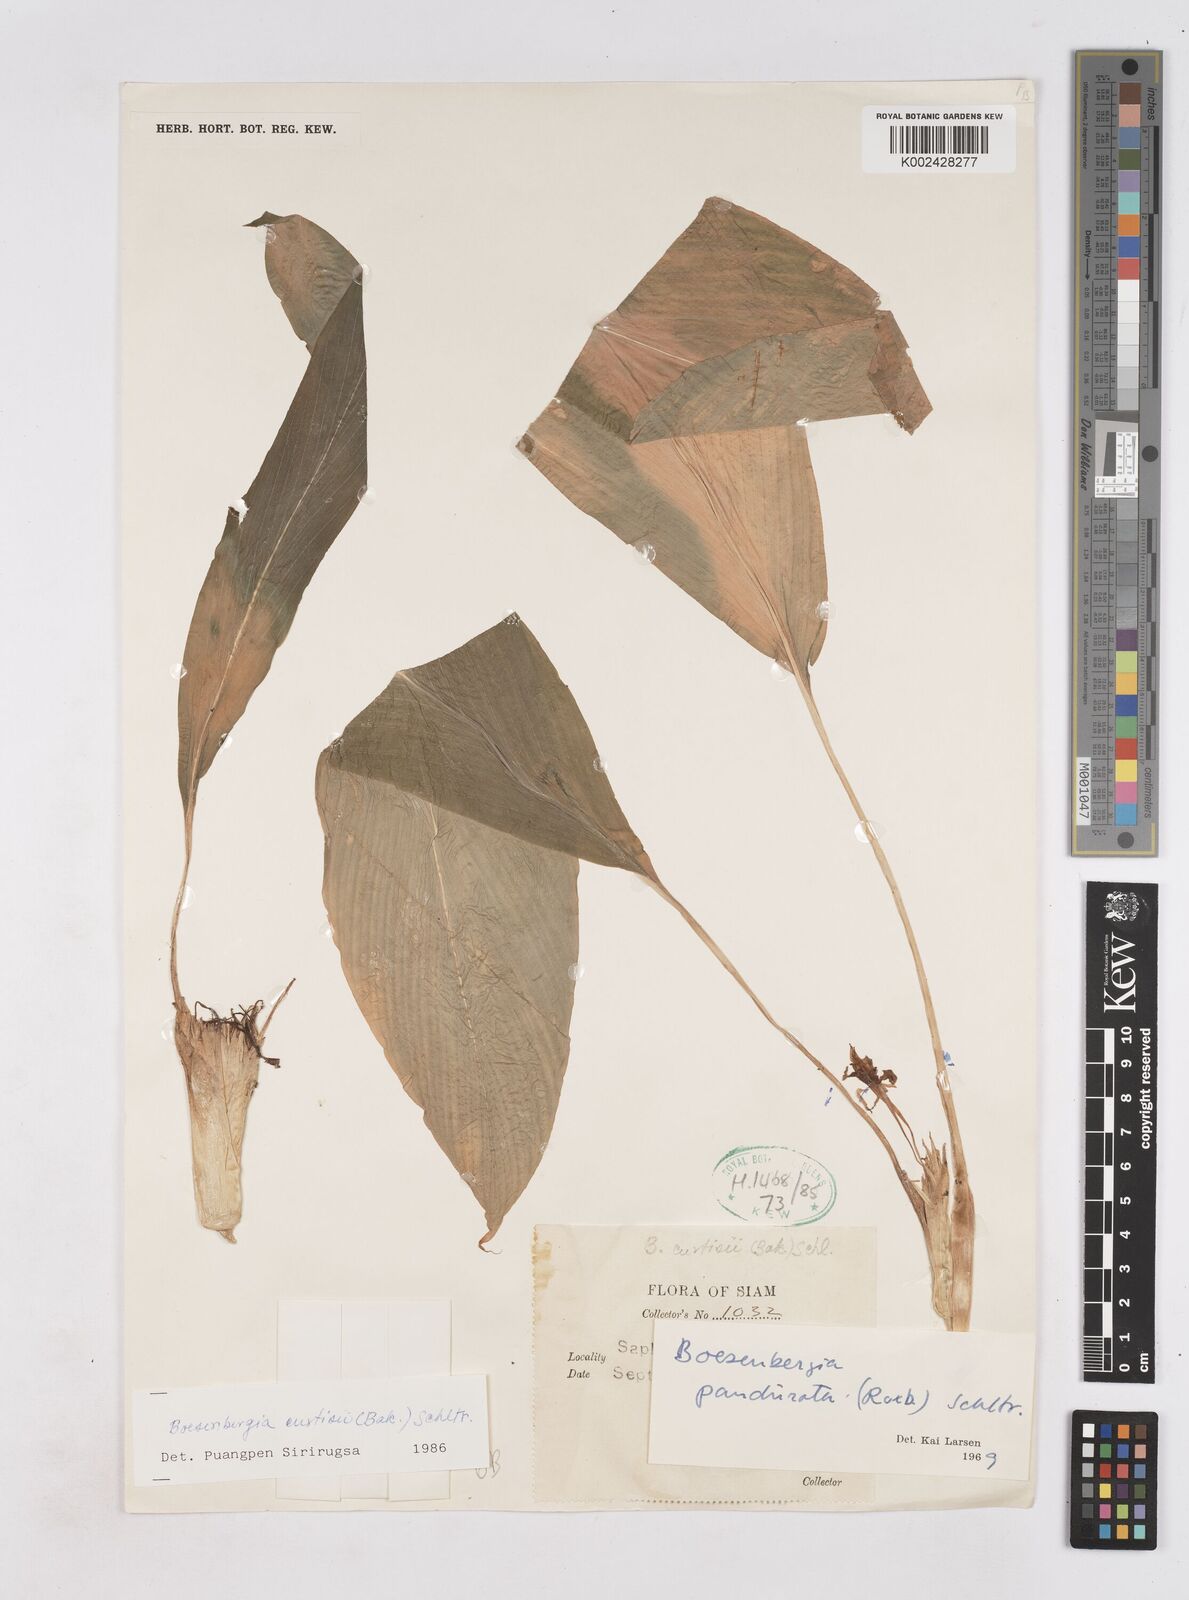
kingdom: Plantae
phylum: Tracheophyta
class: Liliopsida
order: Zingiberales
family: Zingiberaceae
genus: Boesenbergia
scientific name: Boesenbergia curtisii
